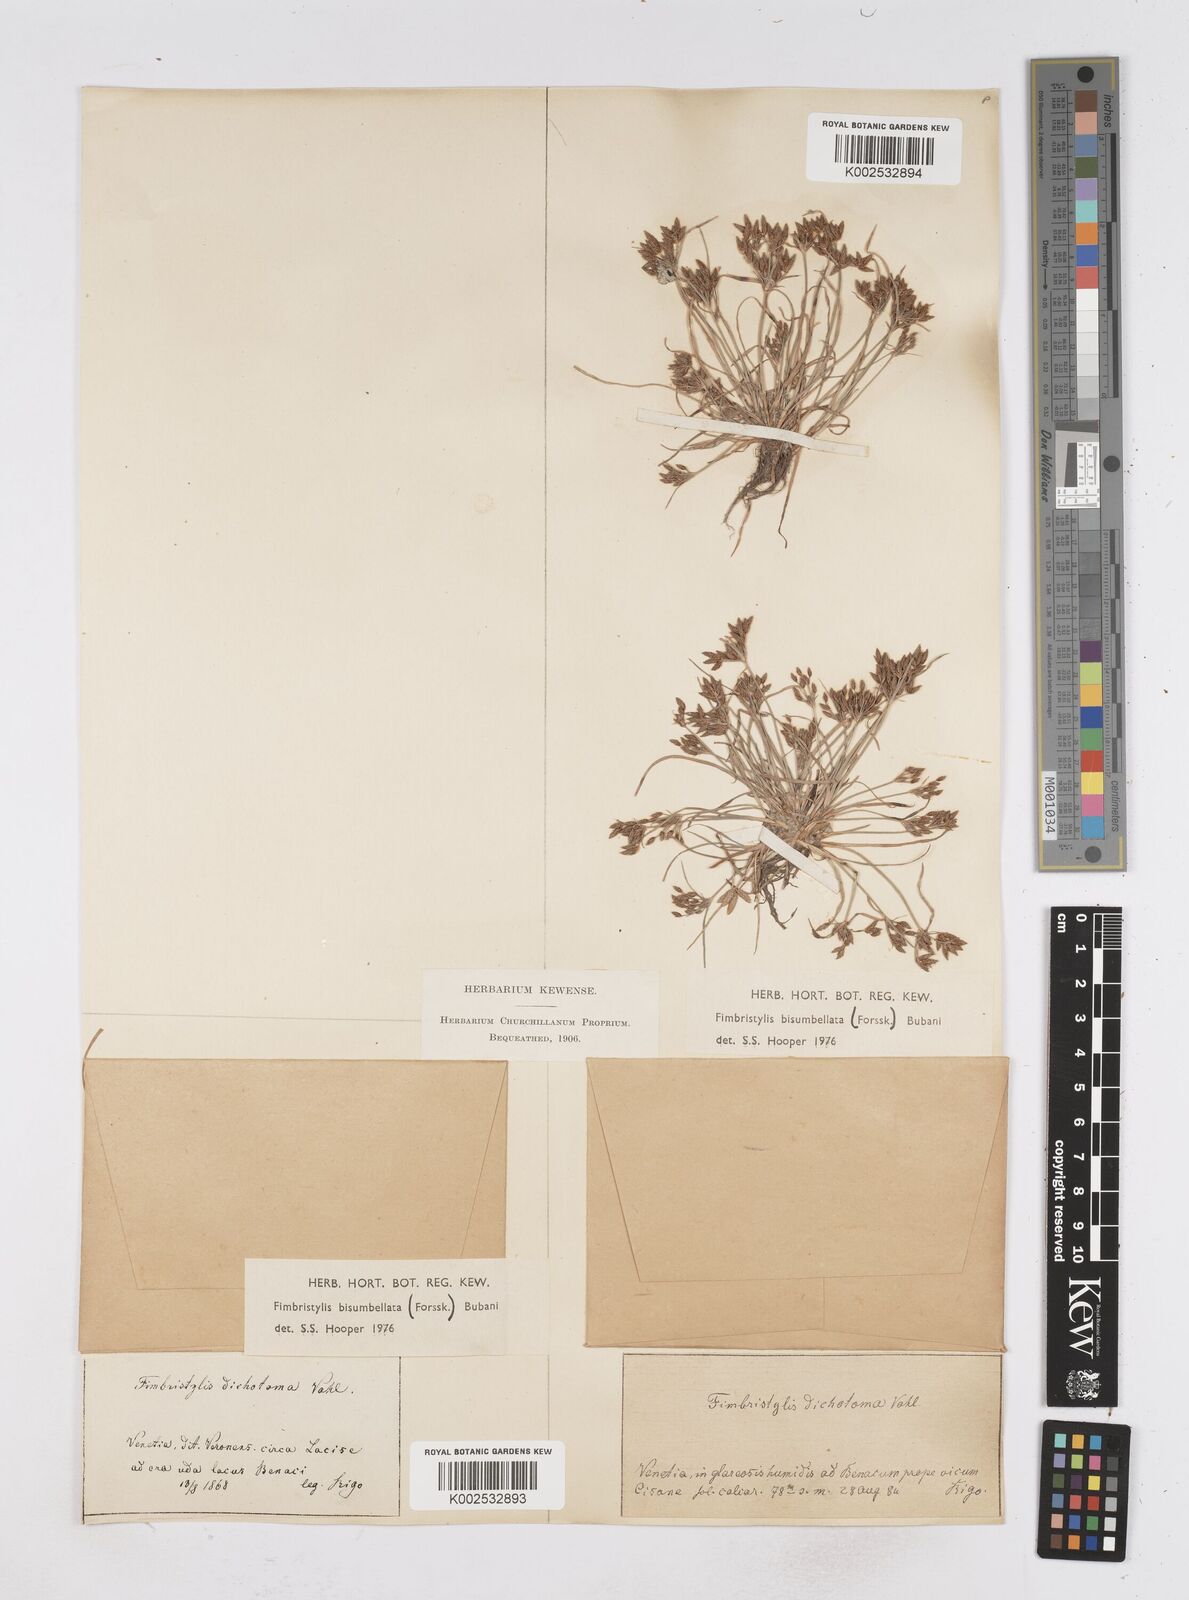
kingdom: Plantae
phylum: Tracheophyta
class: Liliopsida
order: Poales
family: Cyperaceae
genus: Fimbristylis
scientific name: Fimbristylis bisumbellata
